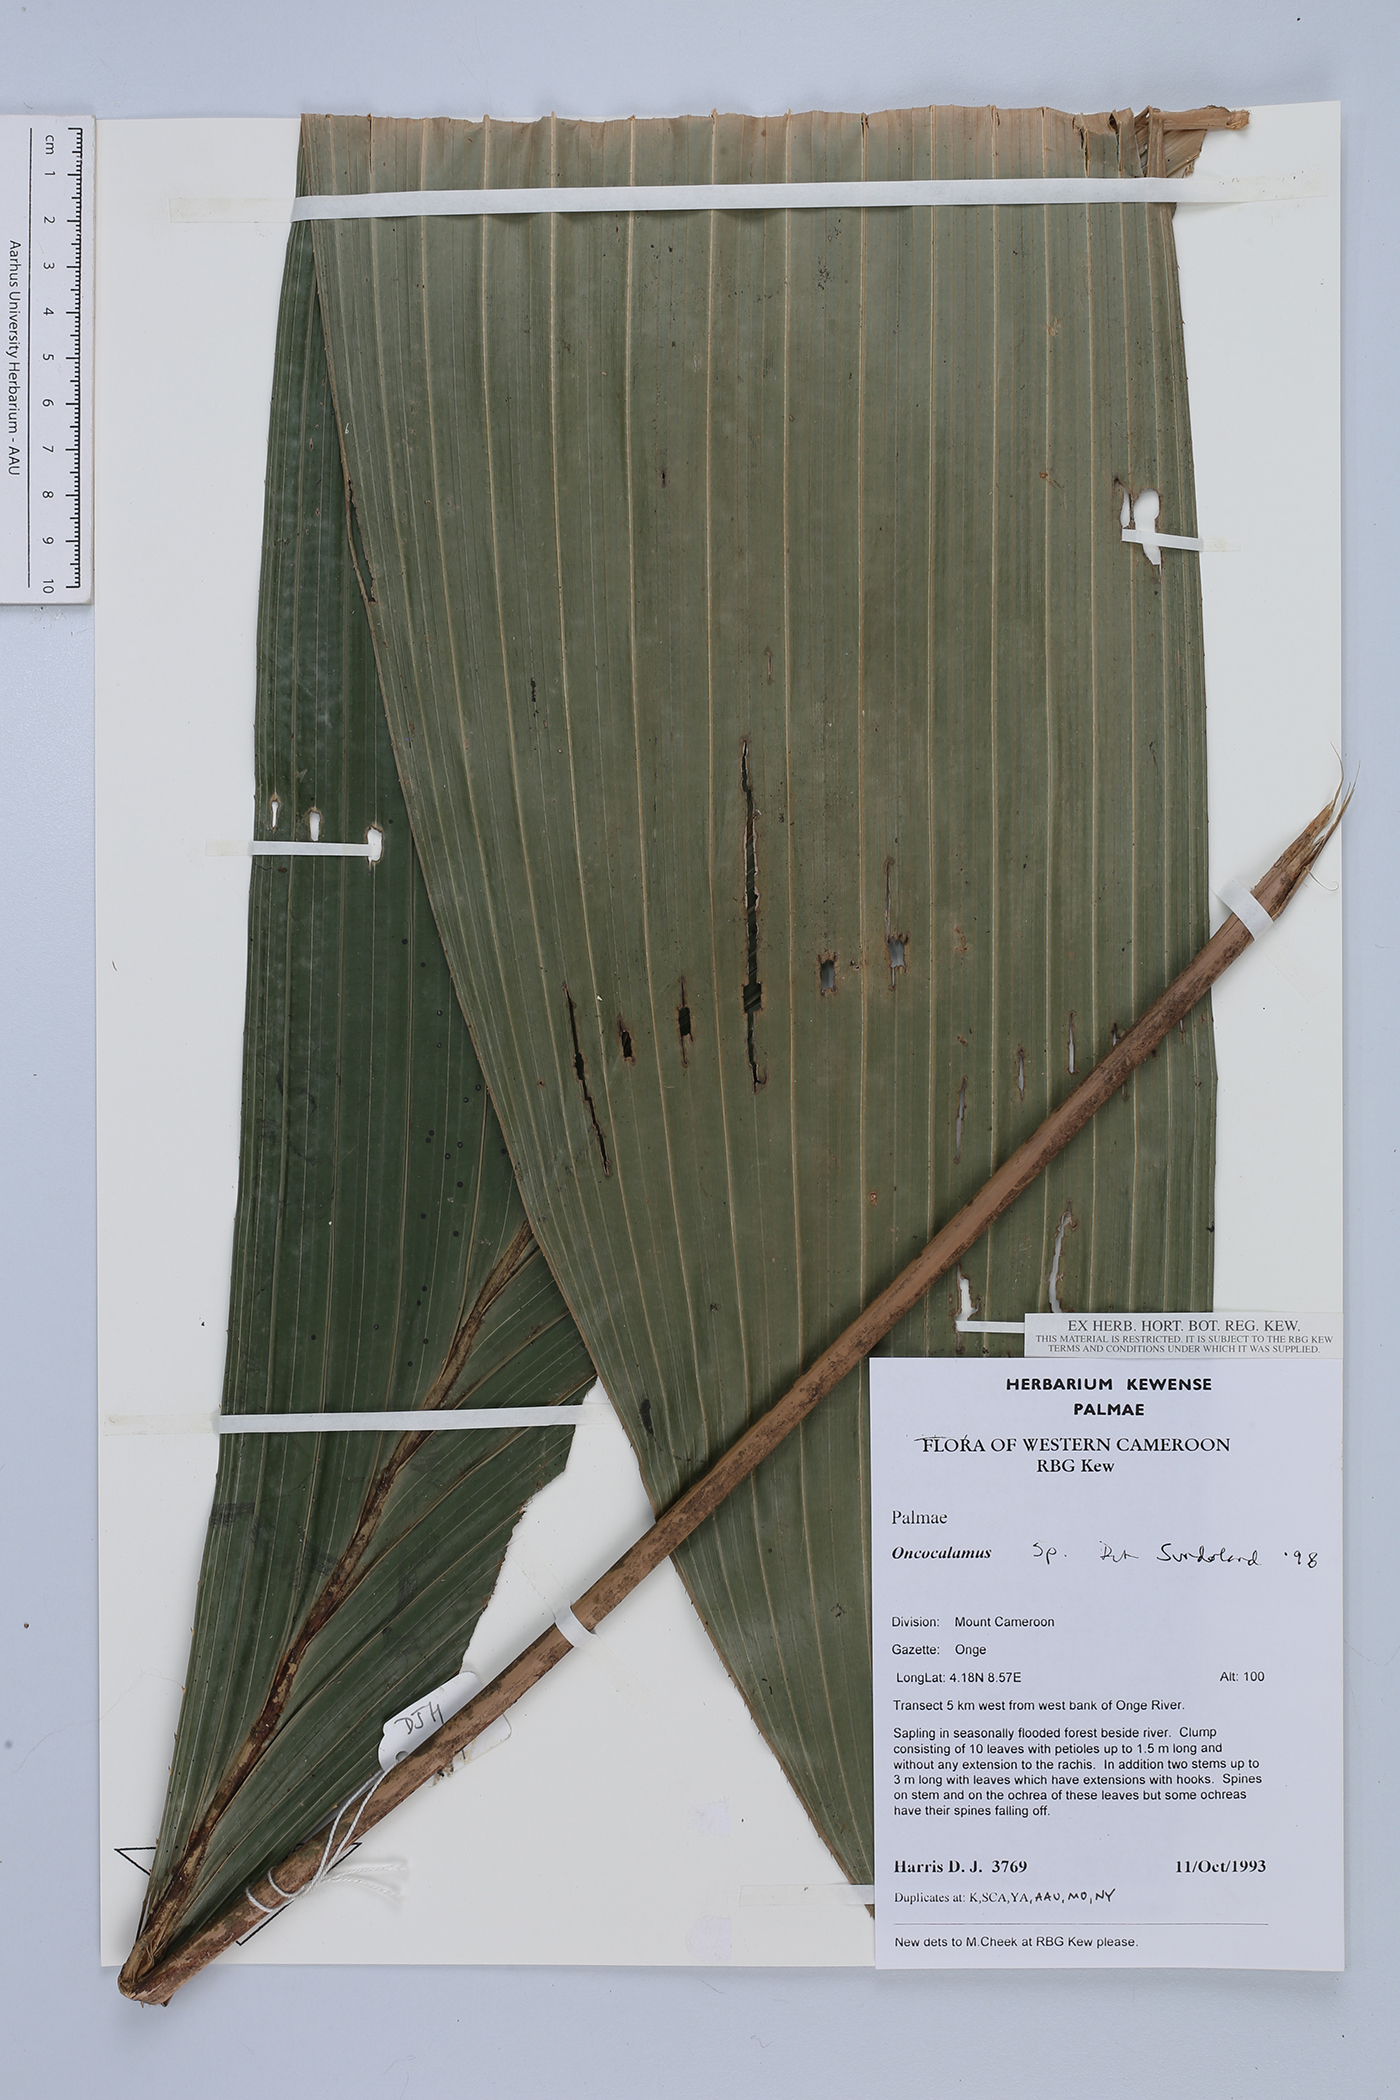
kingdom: Plantae
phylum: Tracheophyta
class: Liliopsida
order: Arecales
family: Arecaceae
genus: Oncocalamus
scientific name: Oncocalamus
